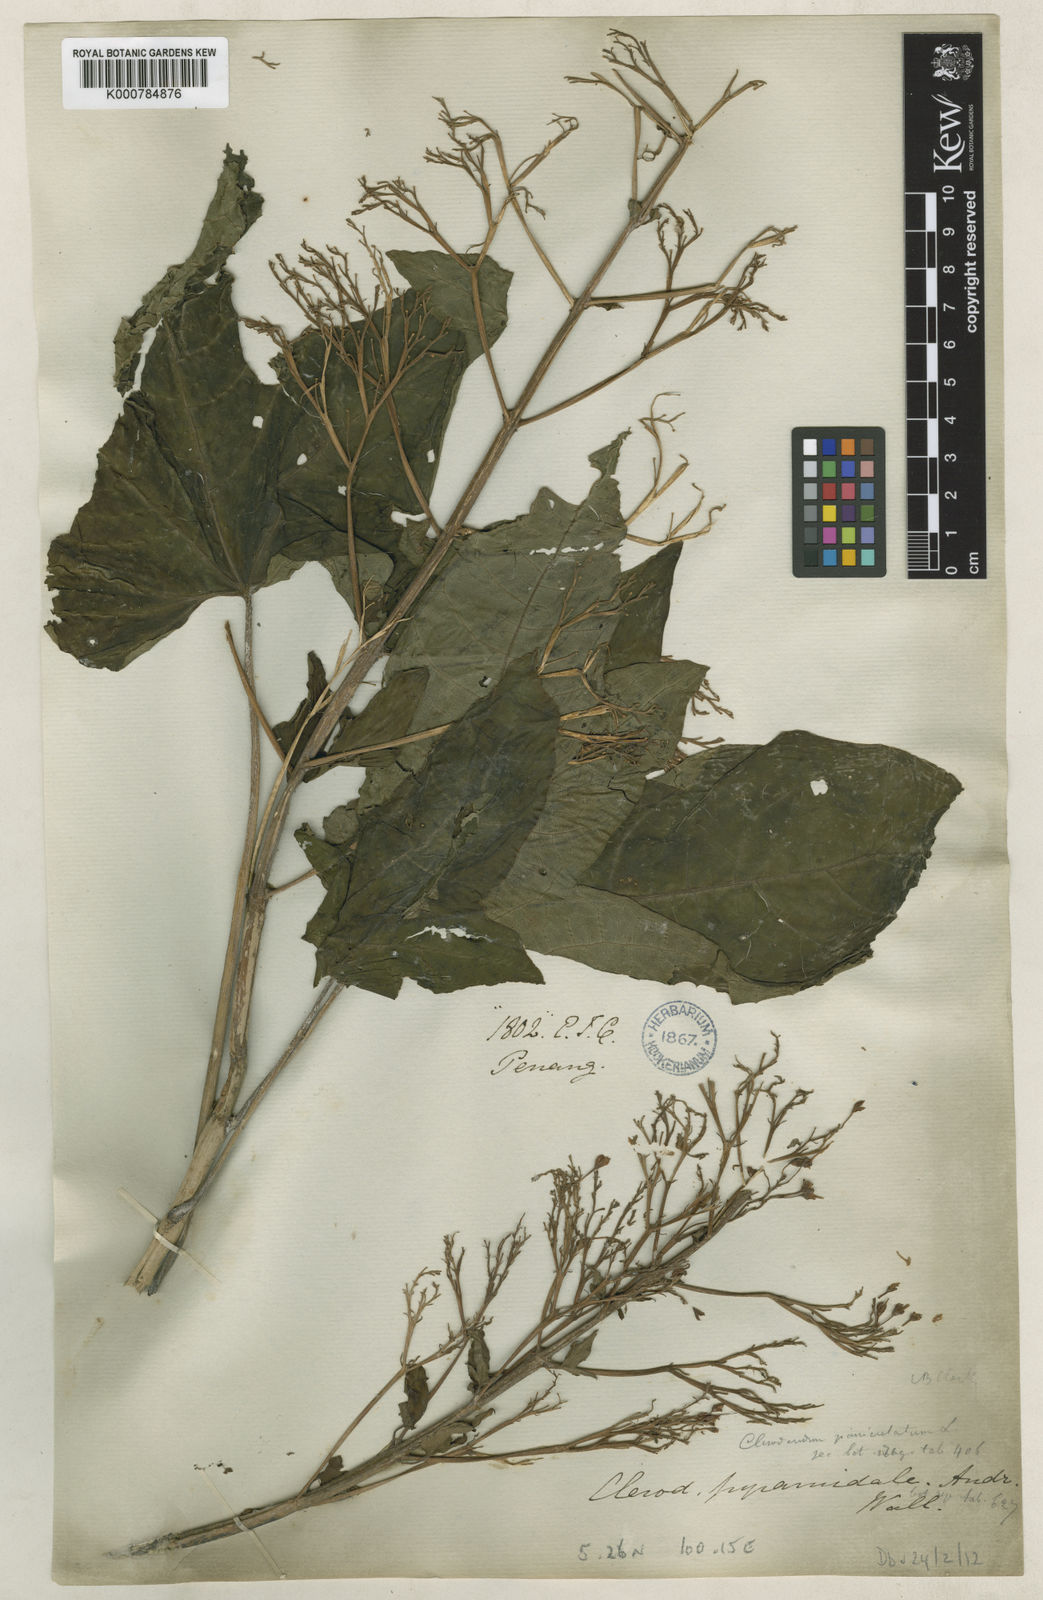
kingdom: Plantae
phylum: Tracheophyta
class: Magnoliopsida
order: Lamiales
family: Lamiaceae
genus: Clerodendrum
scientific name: Clerodendrum paniculatum
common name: Pagoda-flower
